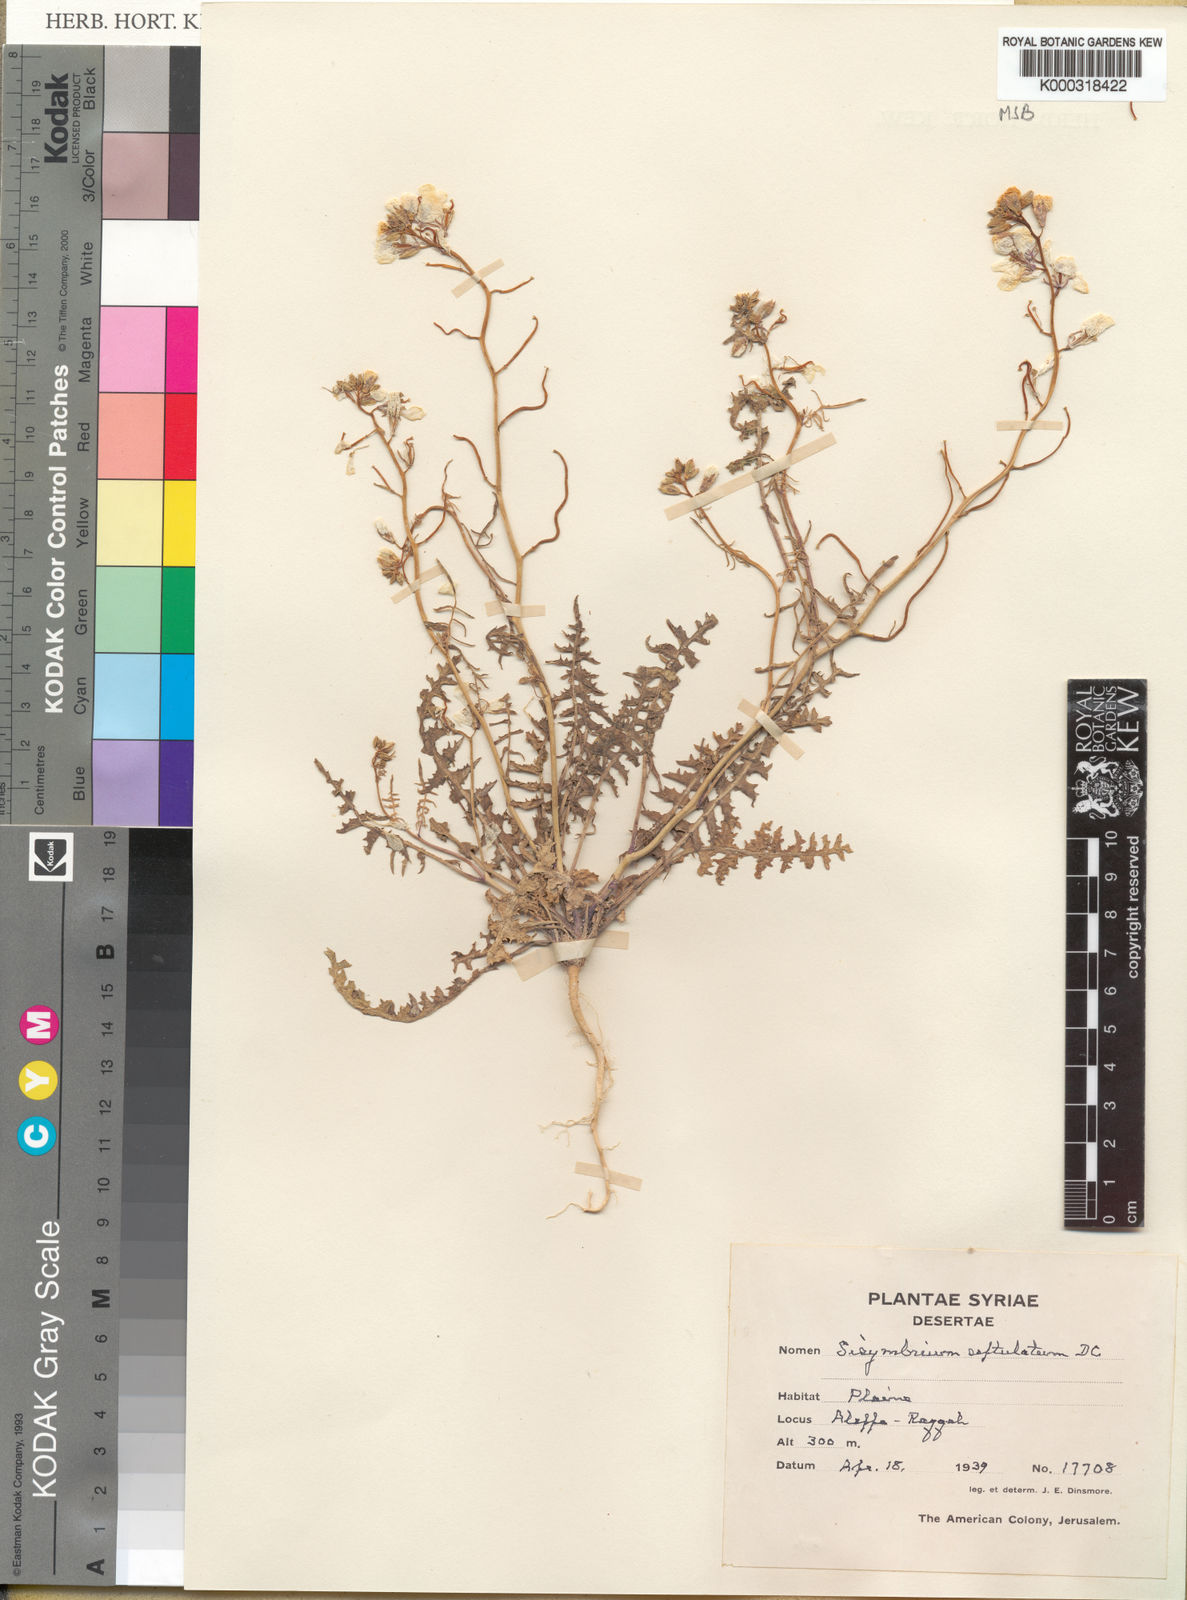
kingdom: Plantae
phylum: Tracheophyta
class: Magnoliopsida
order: Brassicales
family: Brassicaceae
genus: Sisymbrium
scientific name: Sisymbrium septulatum
